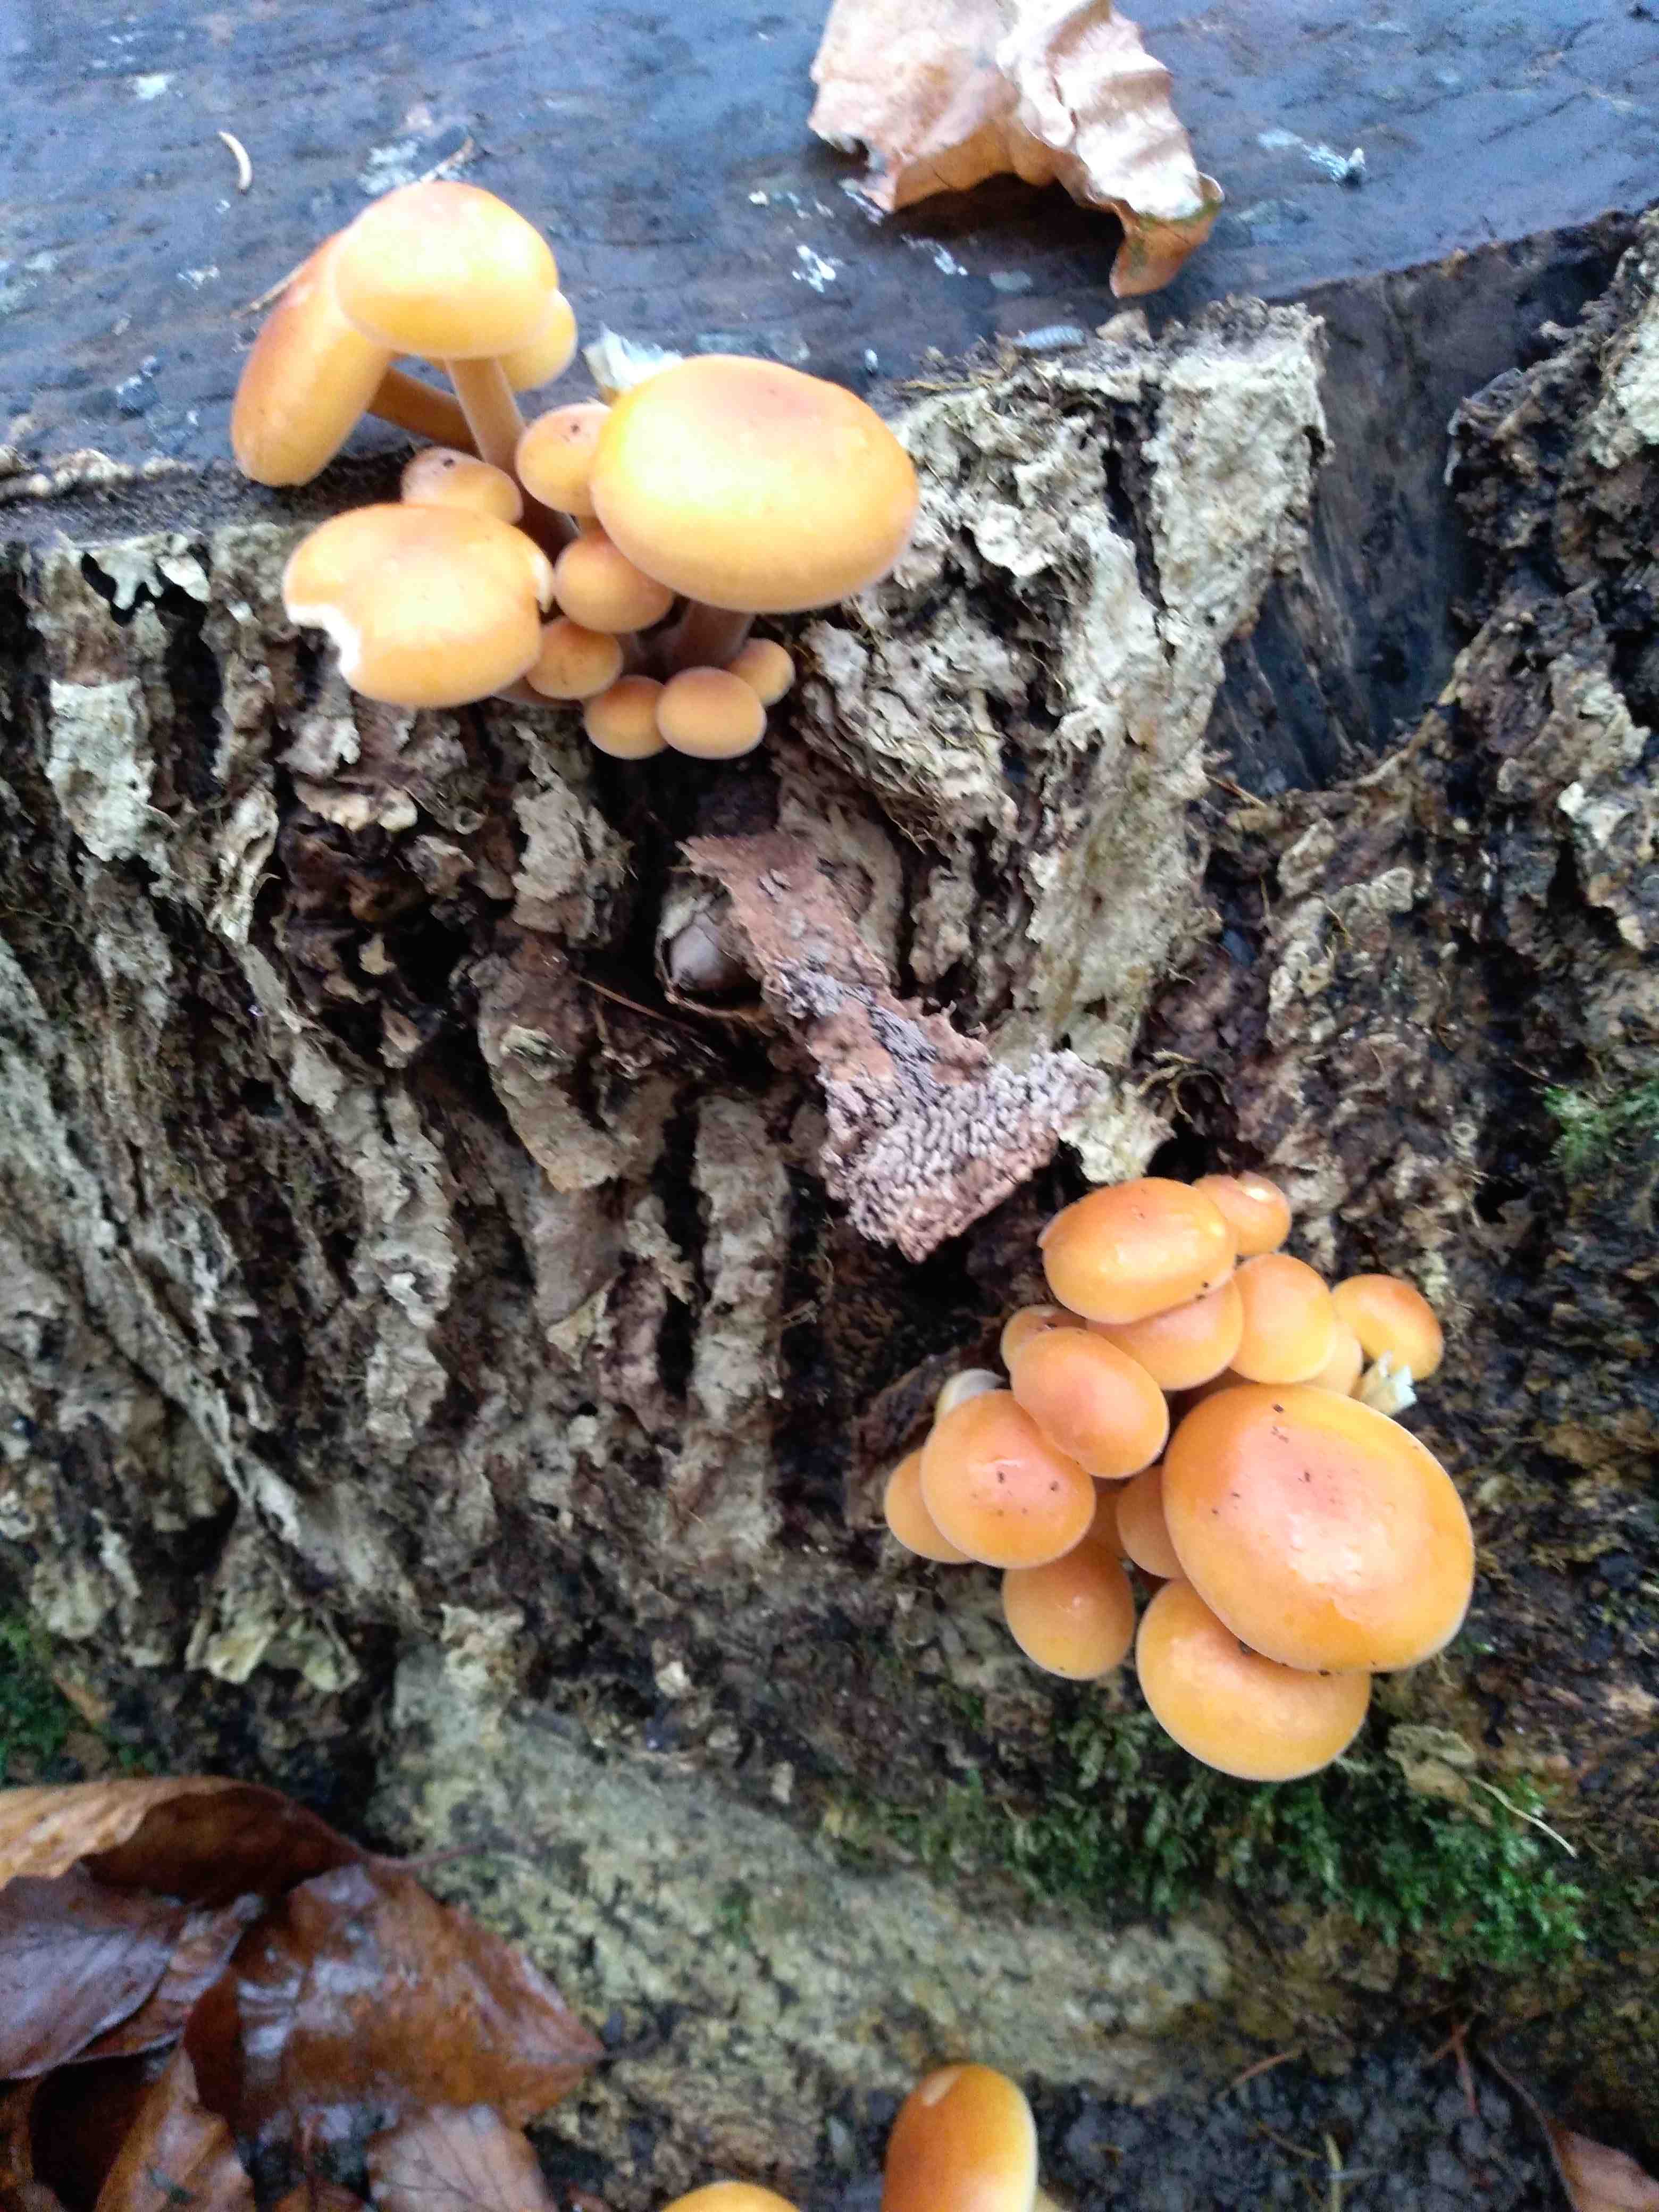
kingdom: Fungi
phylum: Basidiomycota
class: Agaricomycetes
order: Agaricales
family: Physalacriaceae
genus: Flammulina
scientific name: Flammulina velutipes
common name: gul fløjlsfod
